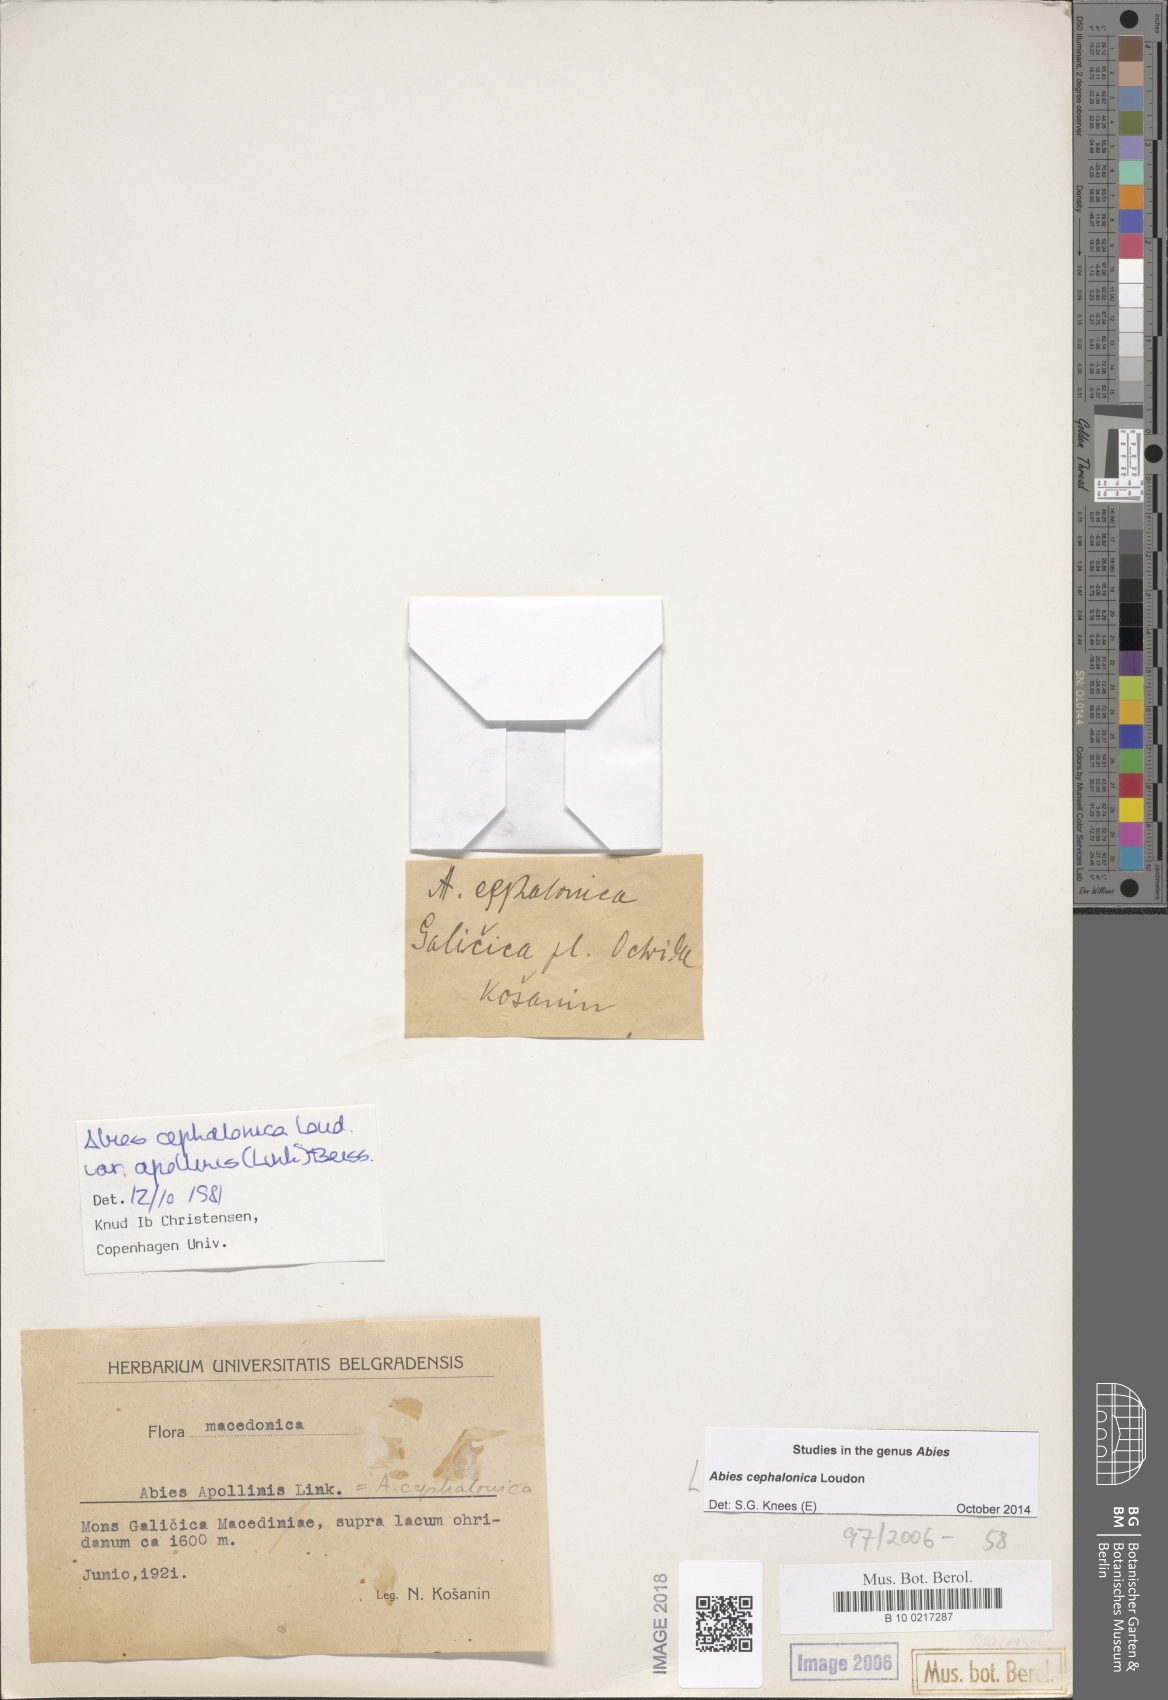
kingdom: Plantae
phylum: Tracheophyta
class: Pinopsida
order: Pinales
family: Pinaceae
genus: Abies
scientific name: Abies cephalonica
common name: Greek fir
